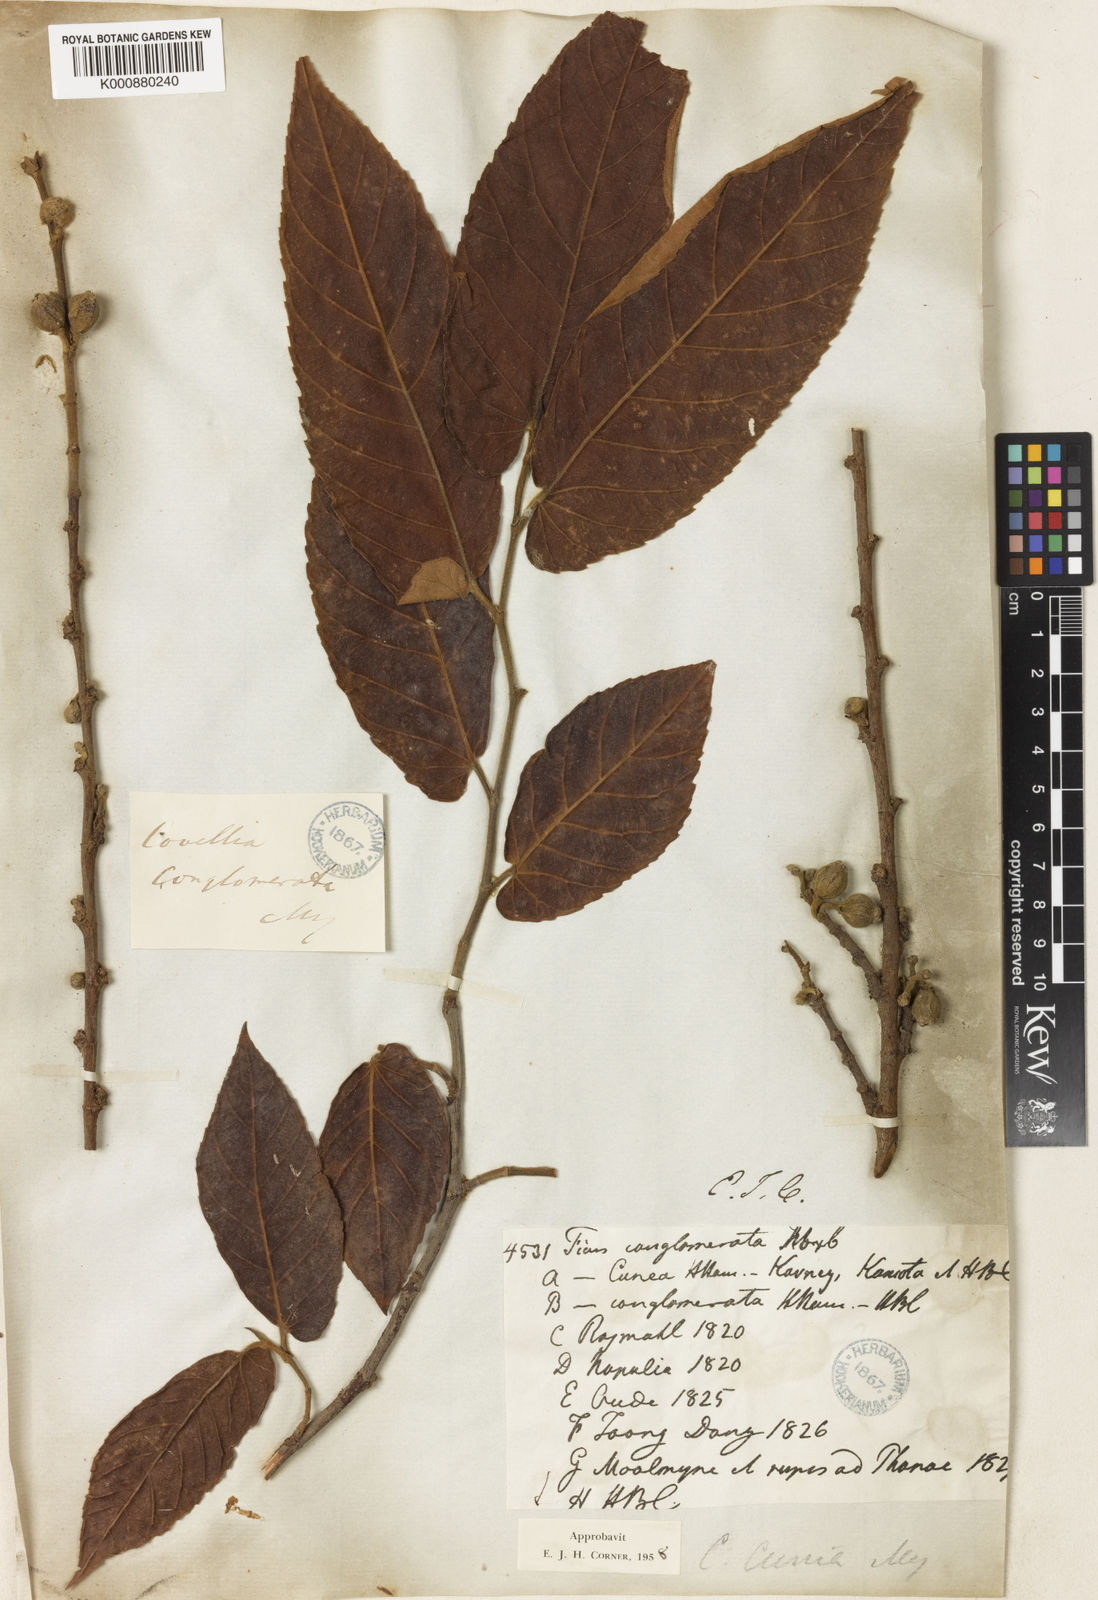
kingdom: Plantae
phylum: Tracheophyta
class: Magnoliopsida
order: Rosales
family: Moraceae
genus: Ficus
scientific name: Ficus semicordata
